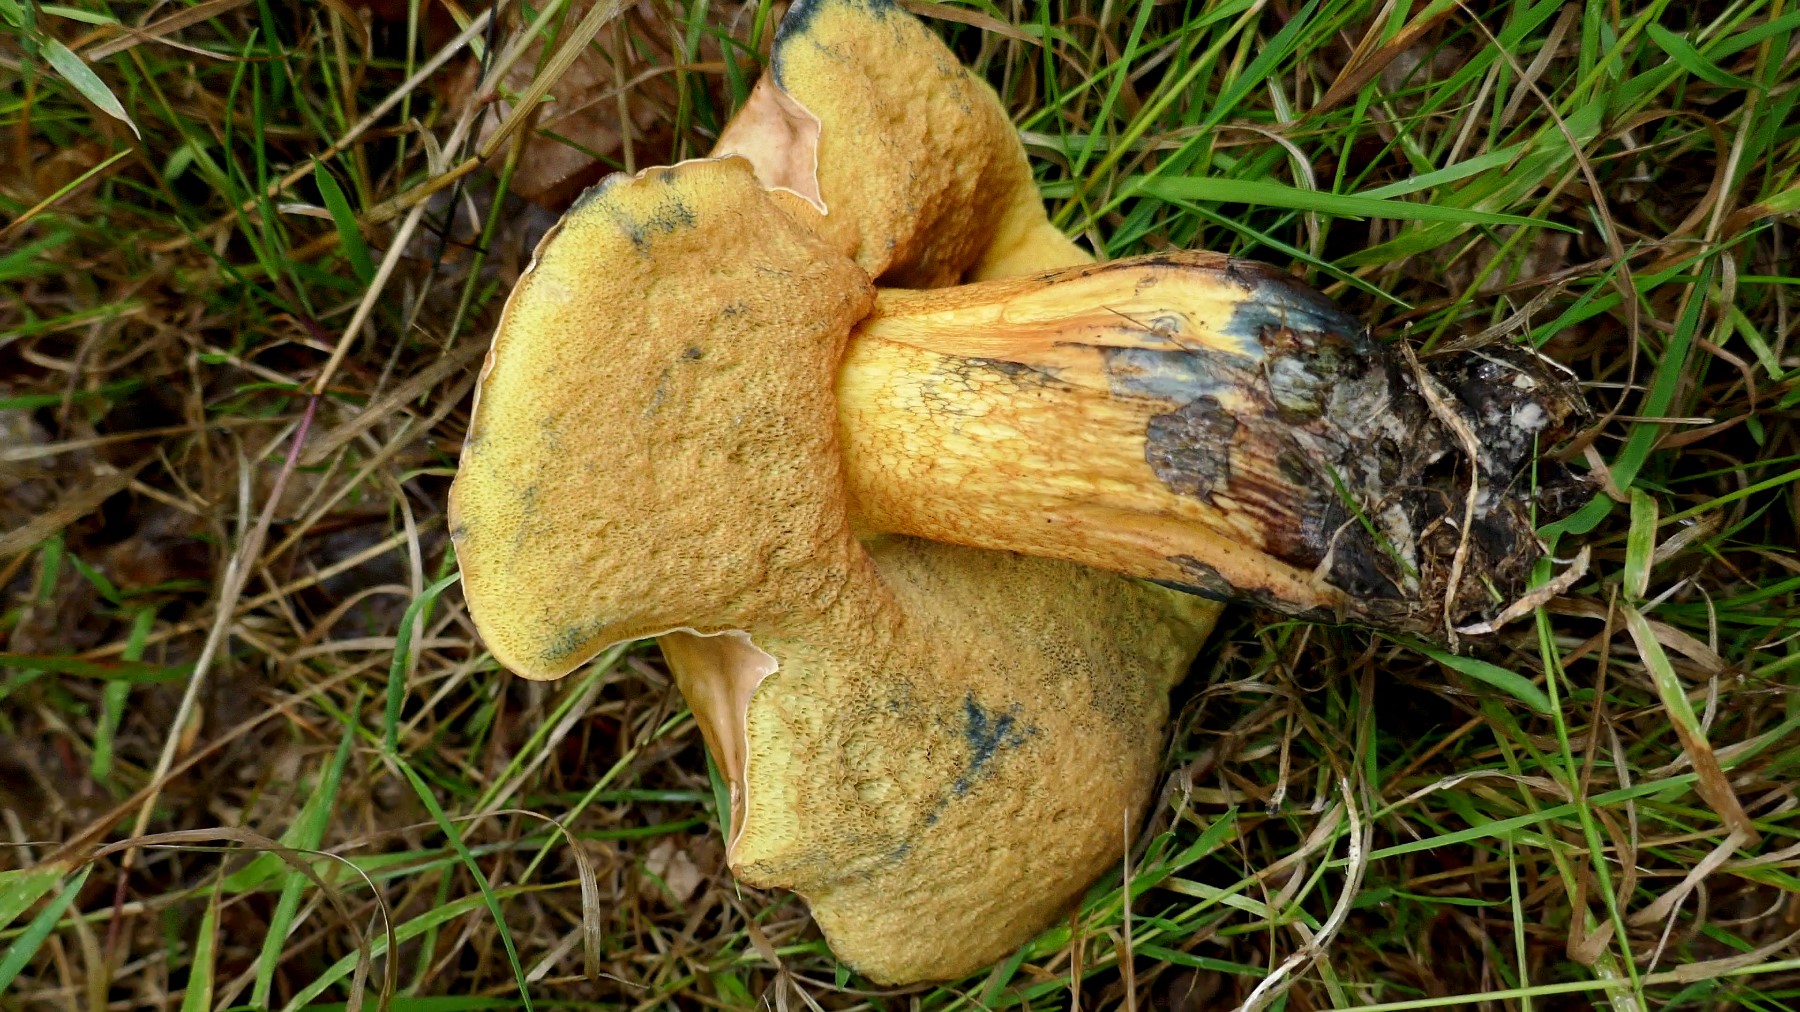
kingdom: Fungi
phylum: Basidiomycota
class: Agaricomycetes
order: Boletales
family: Boletaceae
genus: Suillellus
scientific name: Suillellus luridus
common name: netstokket indigorørhat
